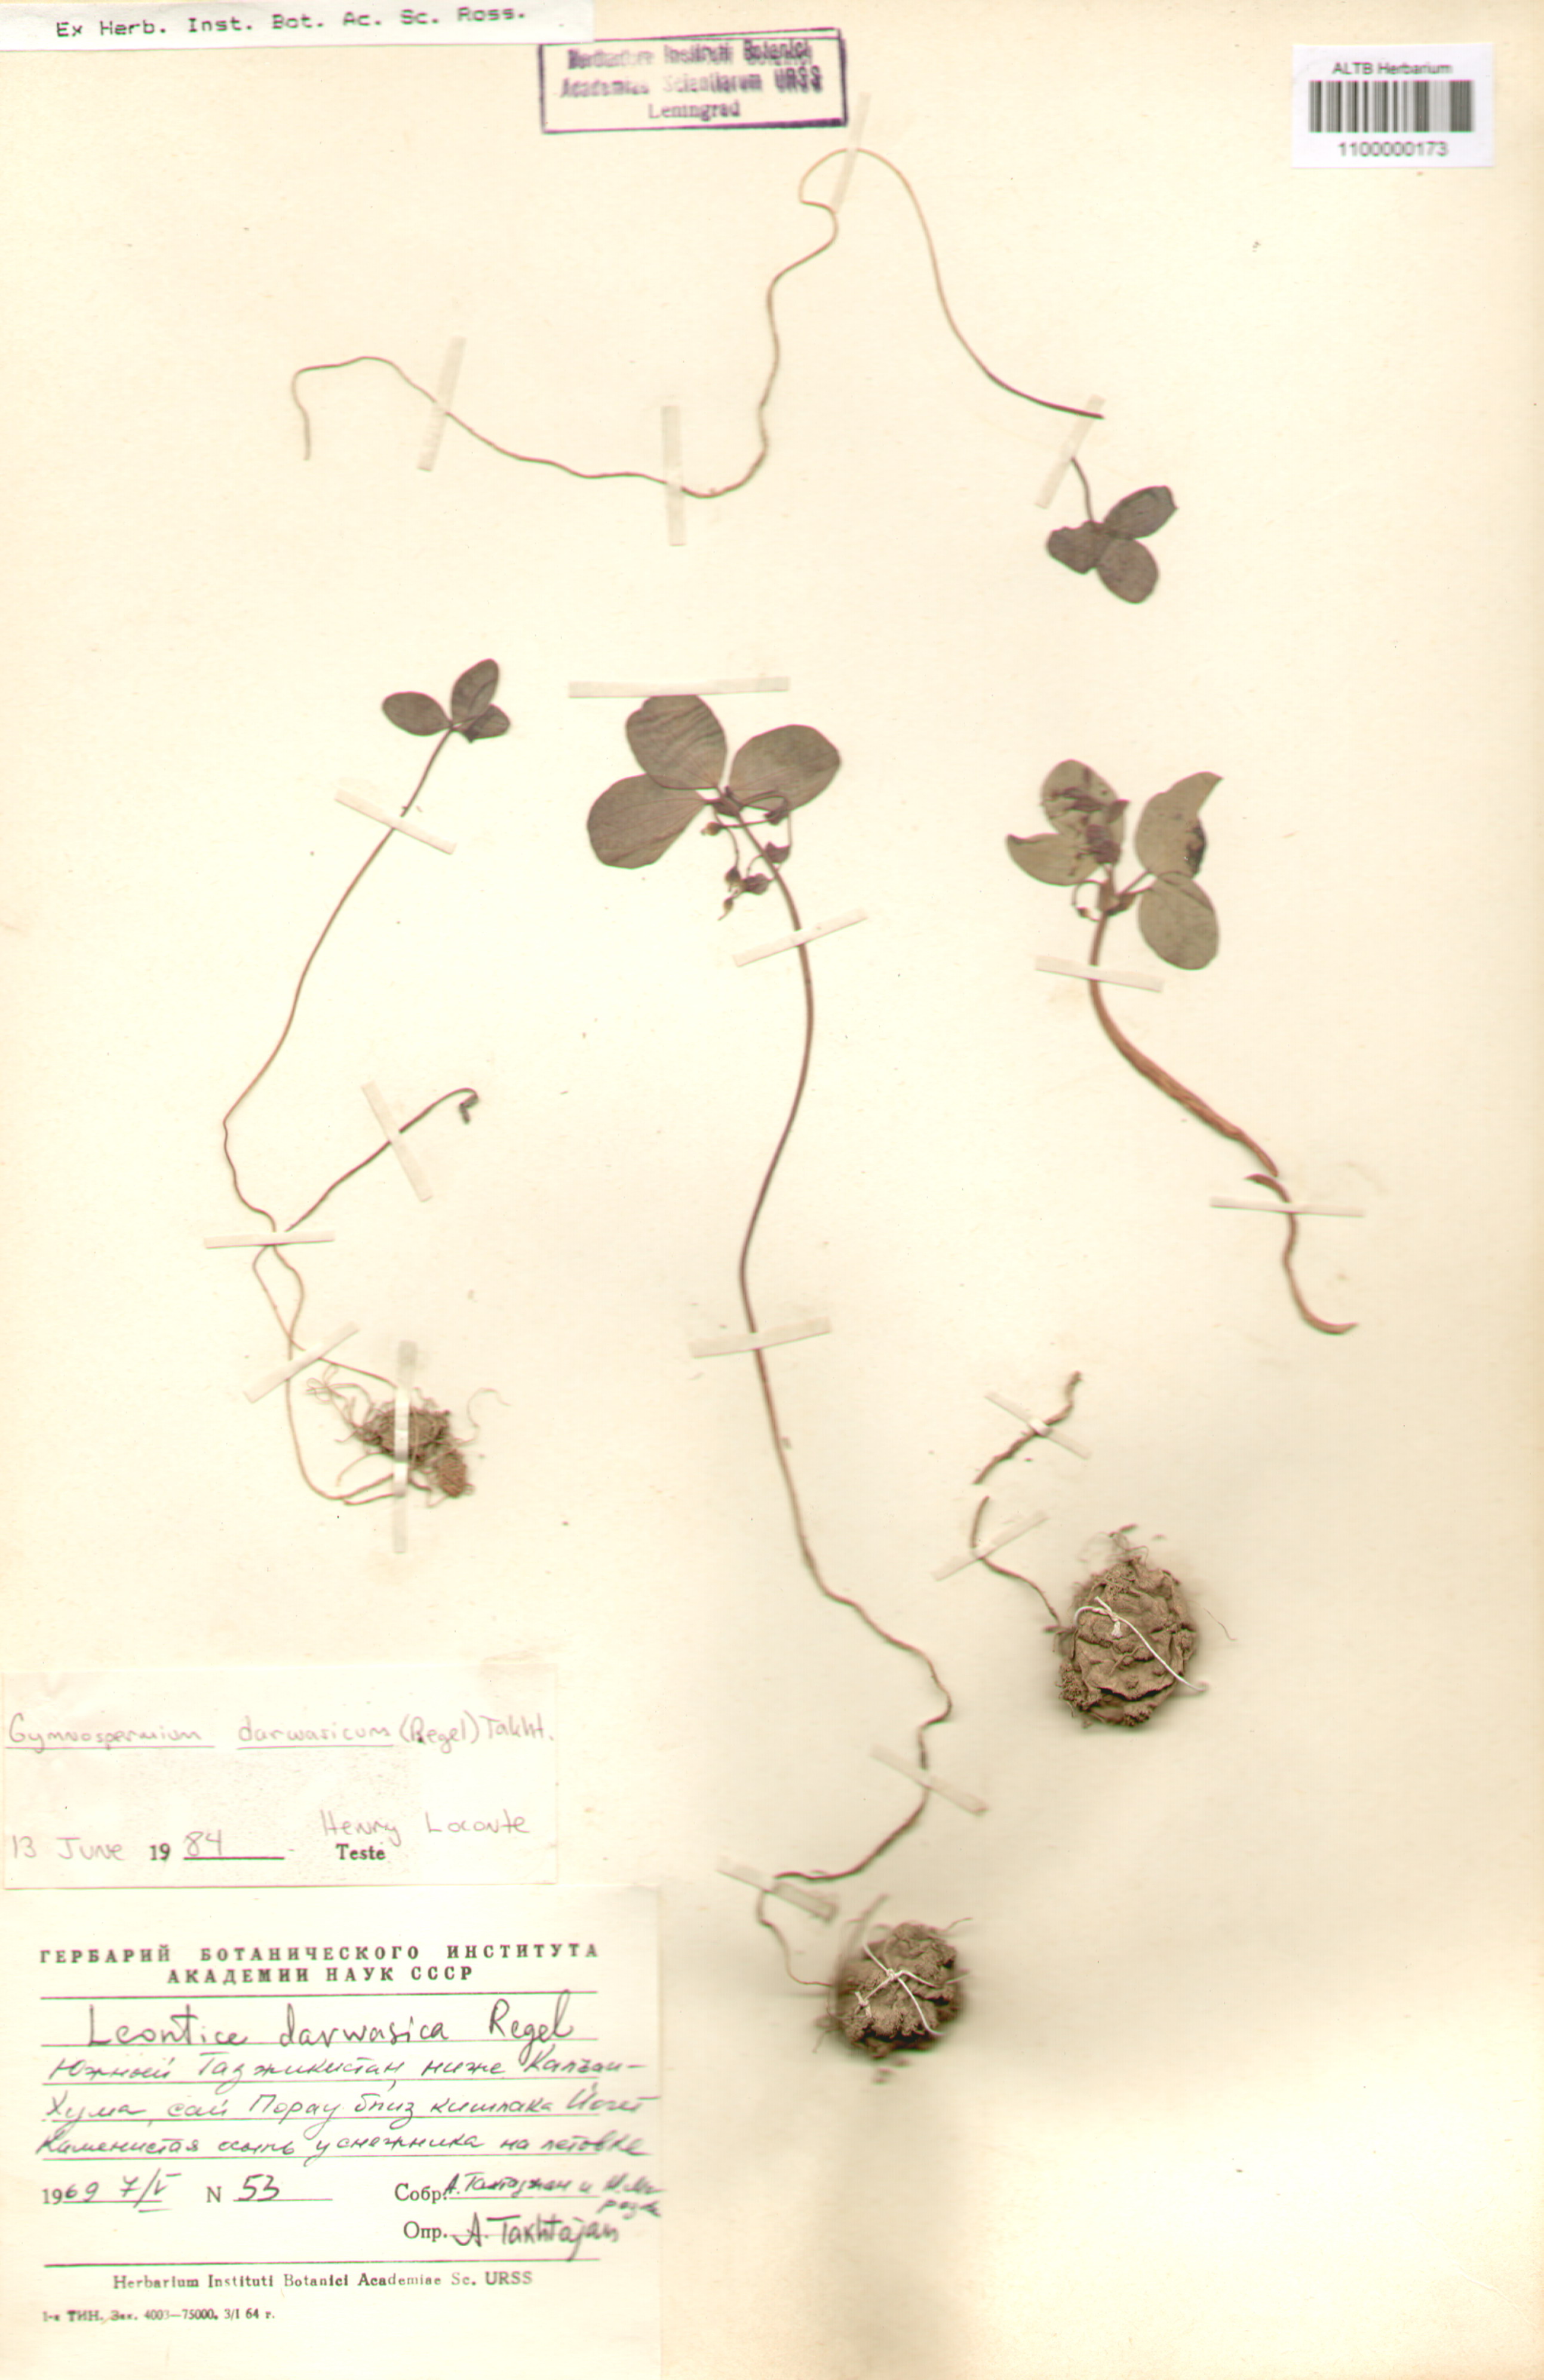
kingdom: Plantae
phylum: Tracheophyta
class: Magnoliopsida
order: Ranunculales
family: Berberidaceae
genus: Gymnospermium
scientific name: Gymnospermium darwasicum
